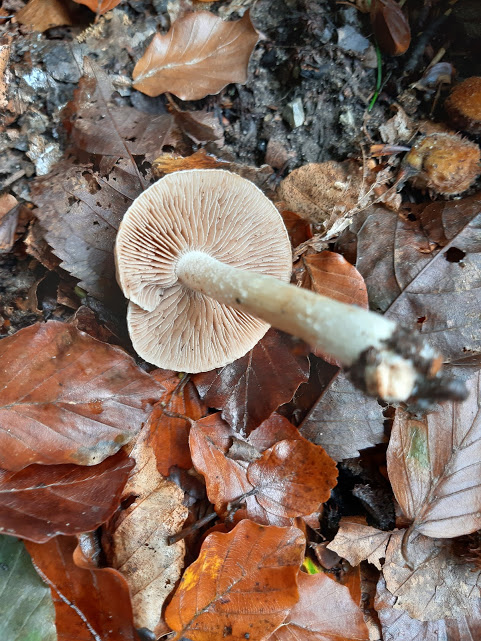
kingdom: Fungi
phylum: Basidiomycota
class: Agaricomycetes
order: Agaricales
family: Hymenogastraceae
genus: Hebeloma
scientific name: Hebeloma
